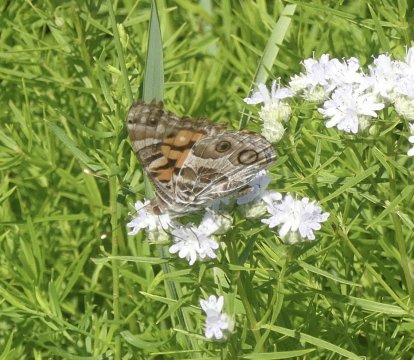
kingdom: Animalia
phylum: Arthropoda
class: Insecta
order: Lepidoptera
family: Nymphalidae
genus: Vanessa
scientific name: Vanessa virginiensis
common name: American Lady
